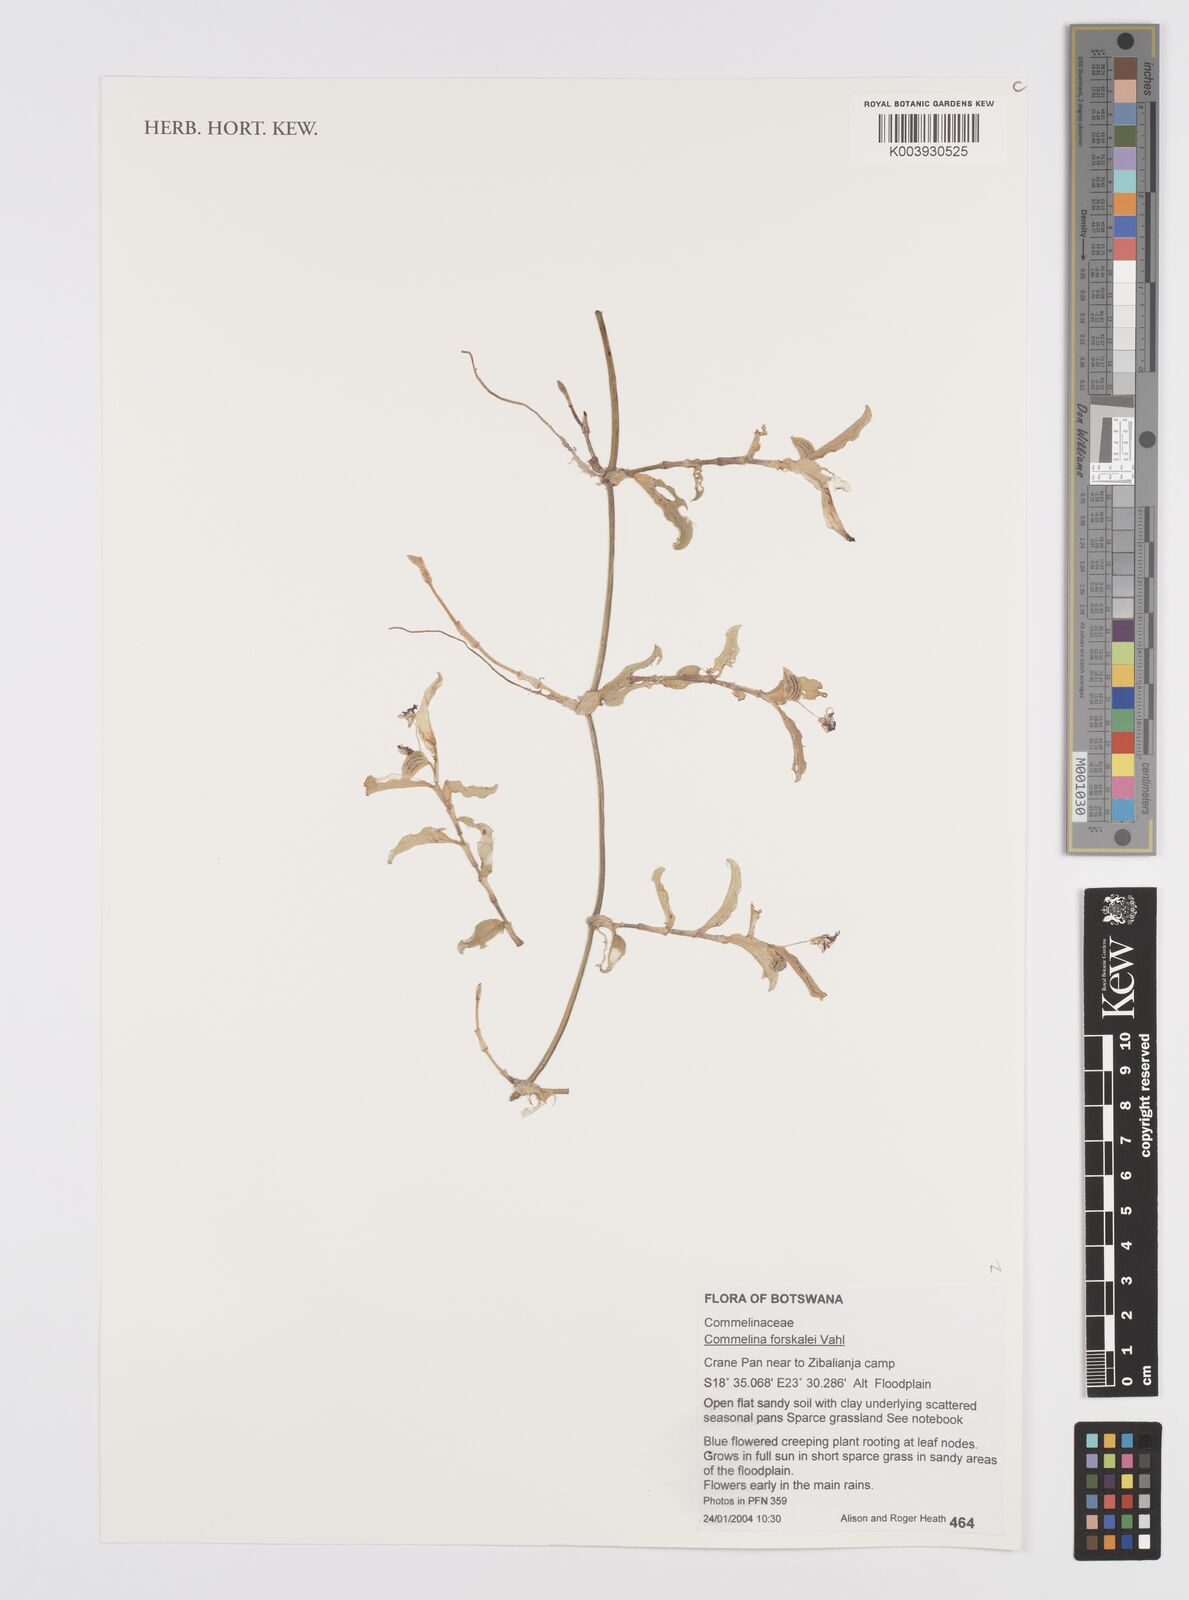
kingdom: Plantae
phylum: Tracheophyta
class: Liliopsida
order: Commelinales
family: Commelinaceae
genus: Commelina
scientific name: Commelina forskaolii
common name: Rat's ear
